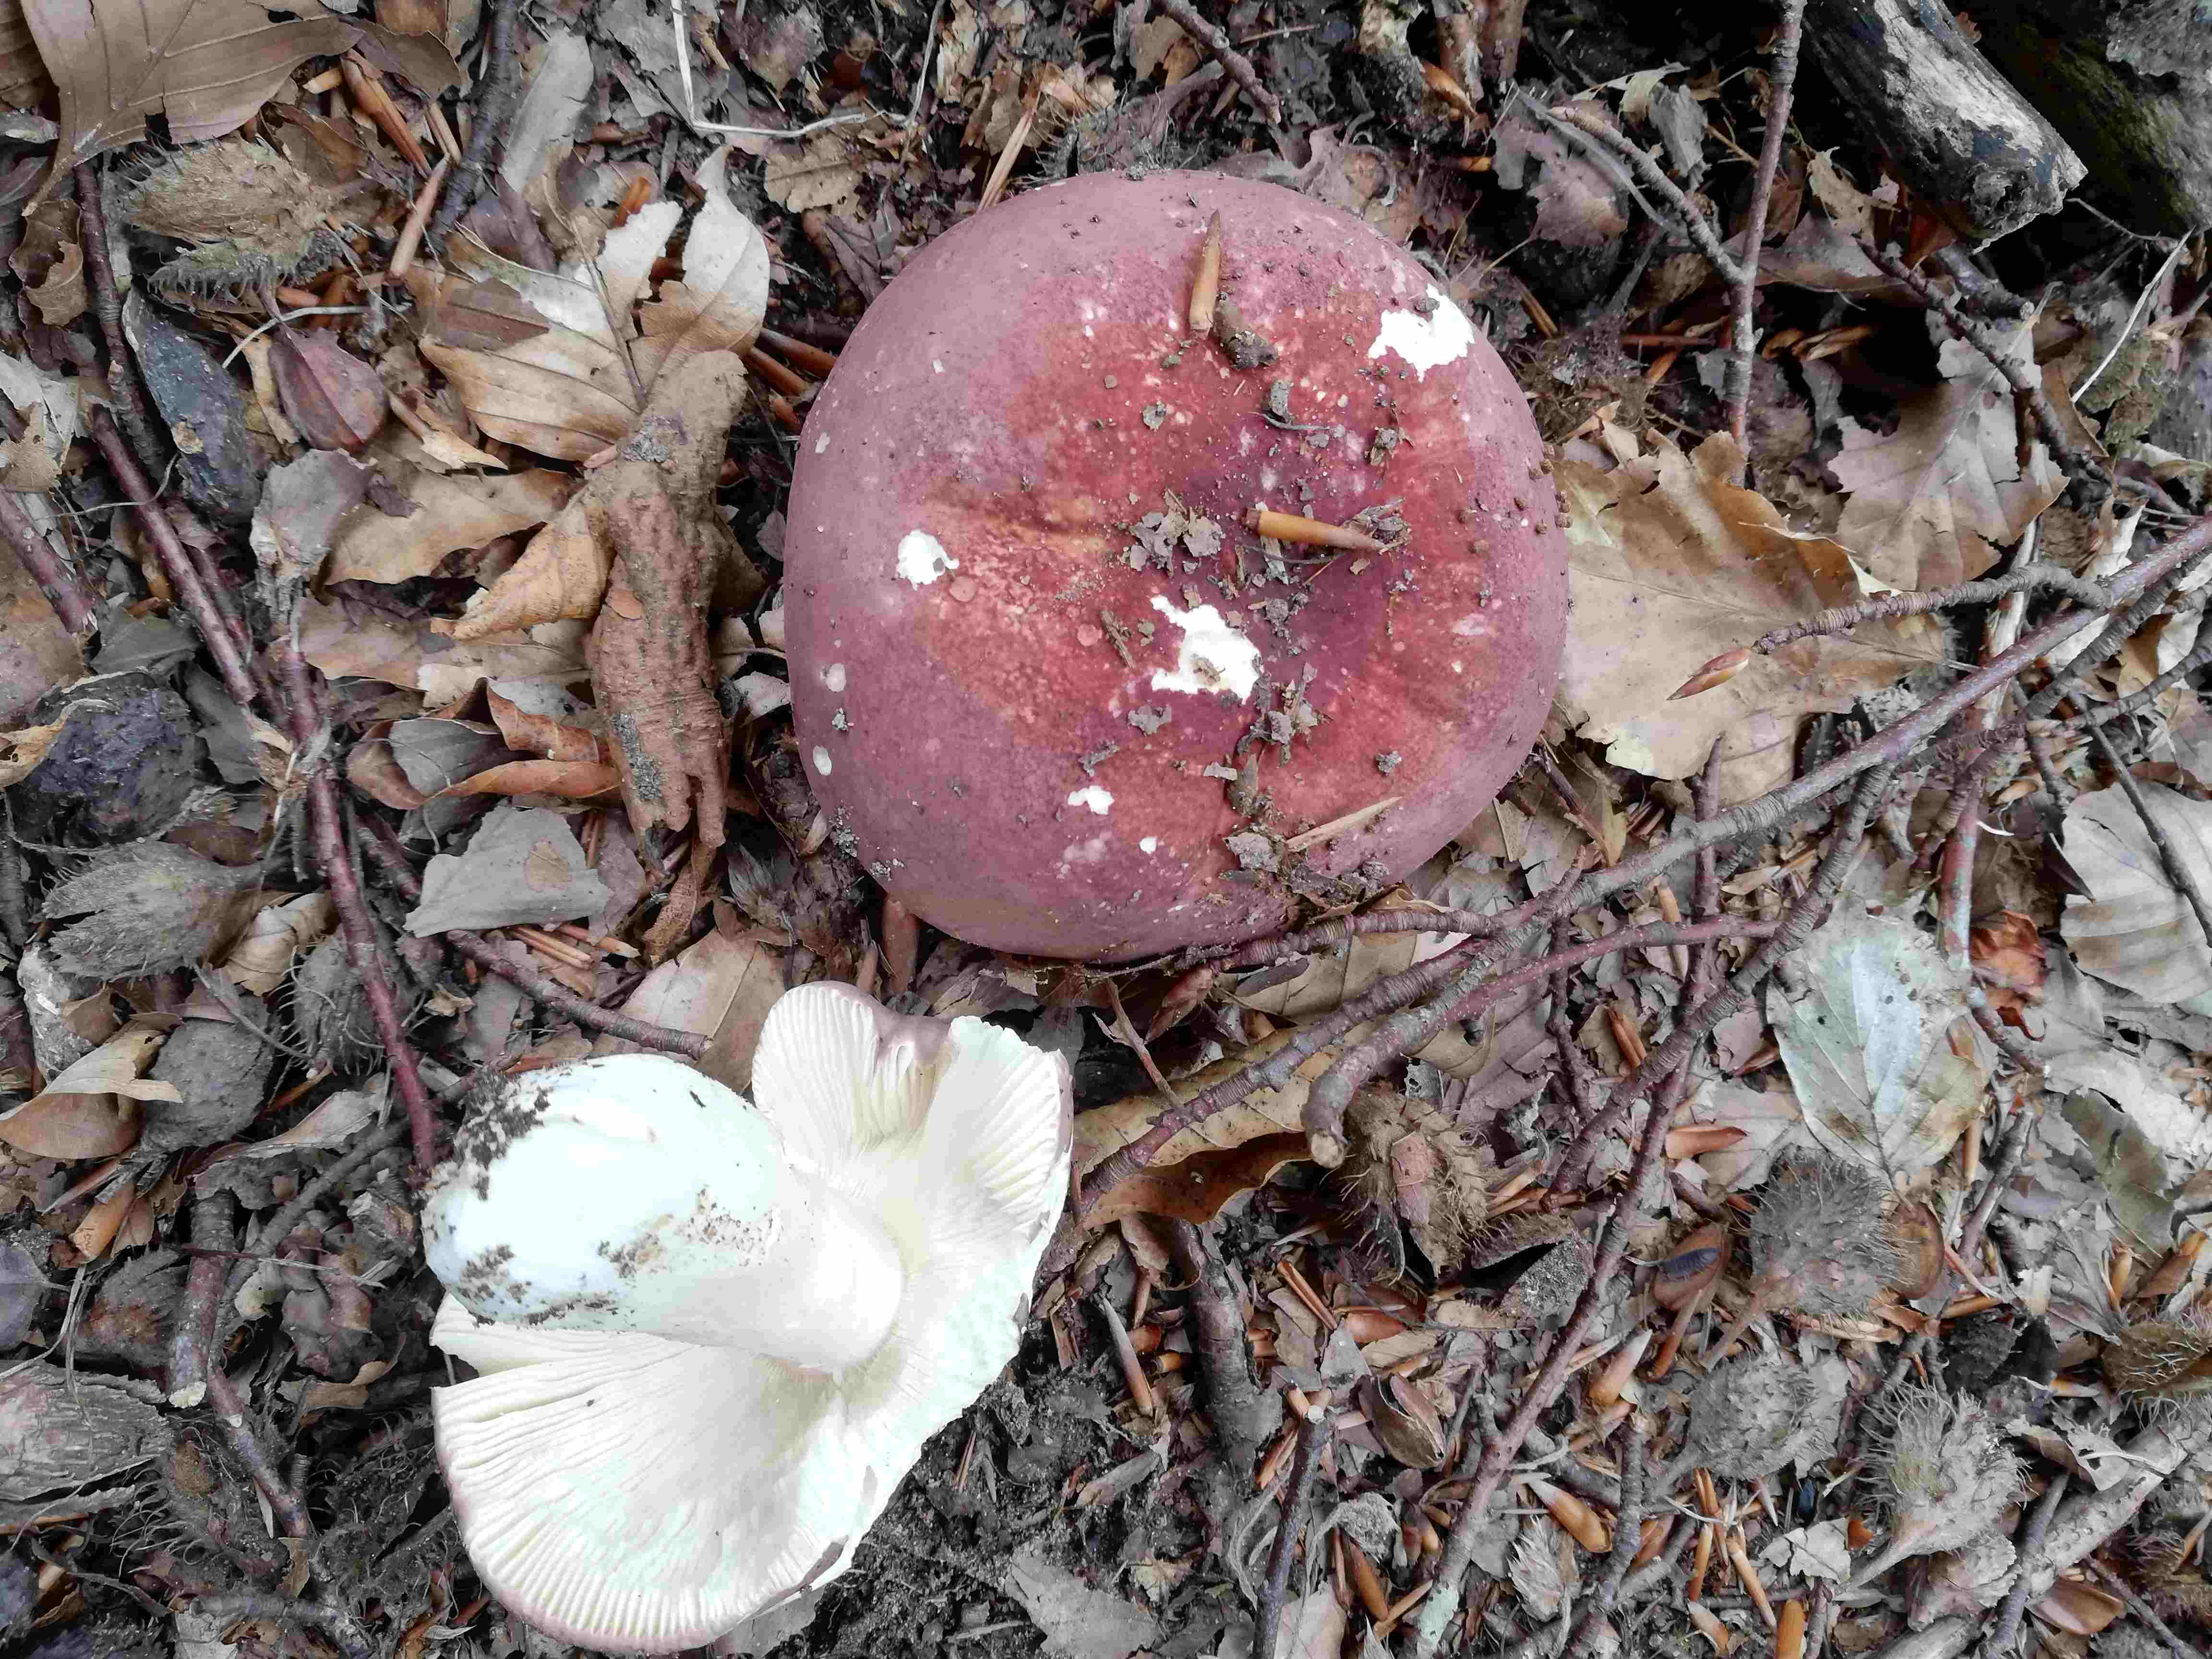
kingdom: Fungi
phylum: Basidiomycota
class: Agaricomycetes
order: Russulales
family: Russulaceae
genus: Russula
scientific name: Russula
